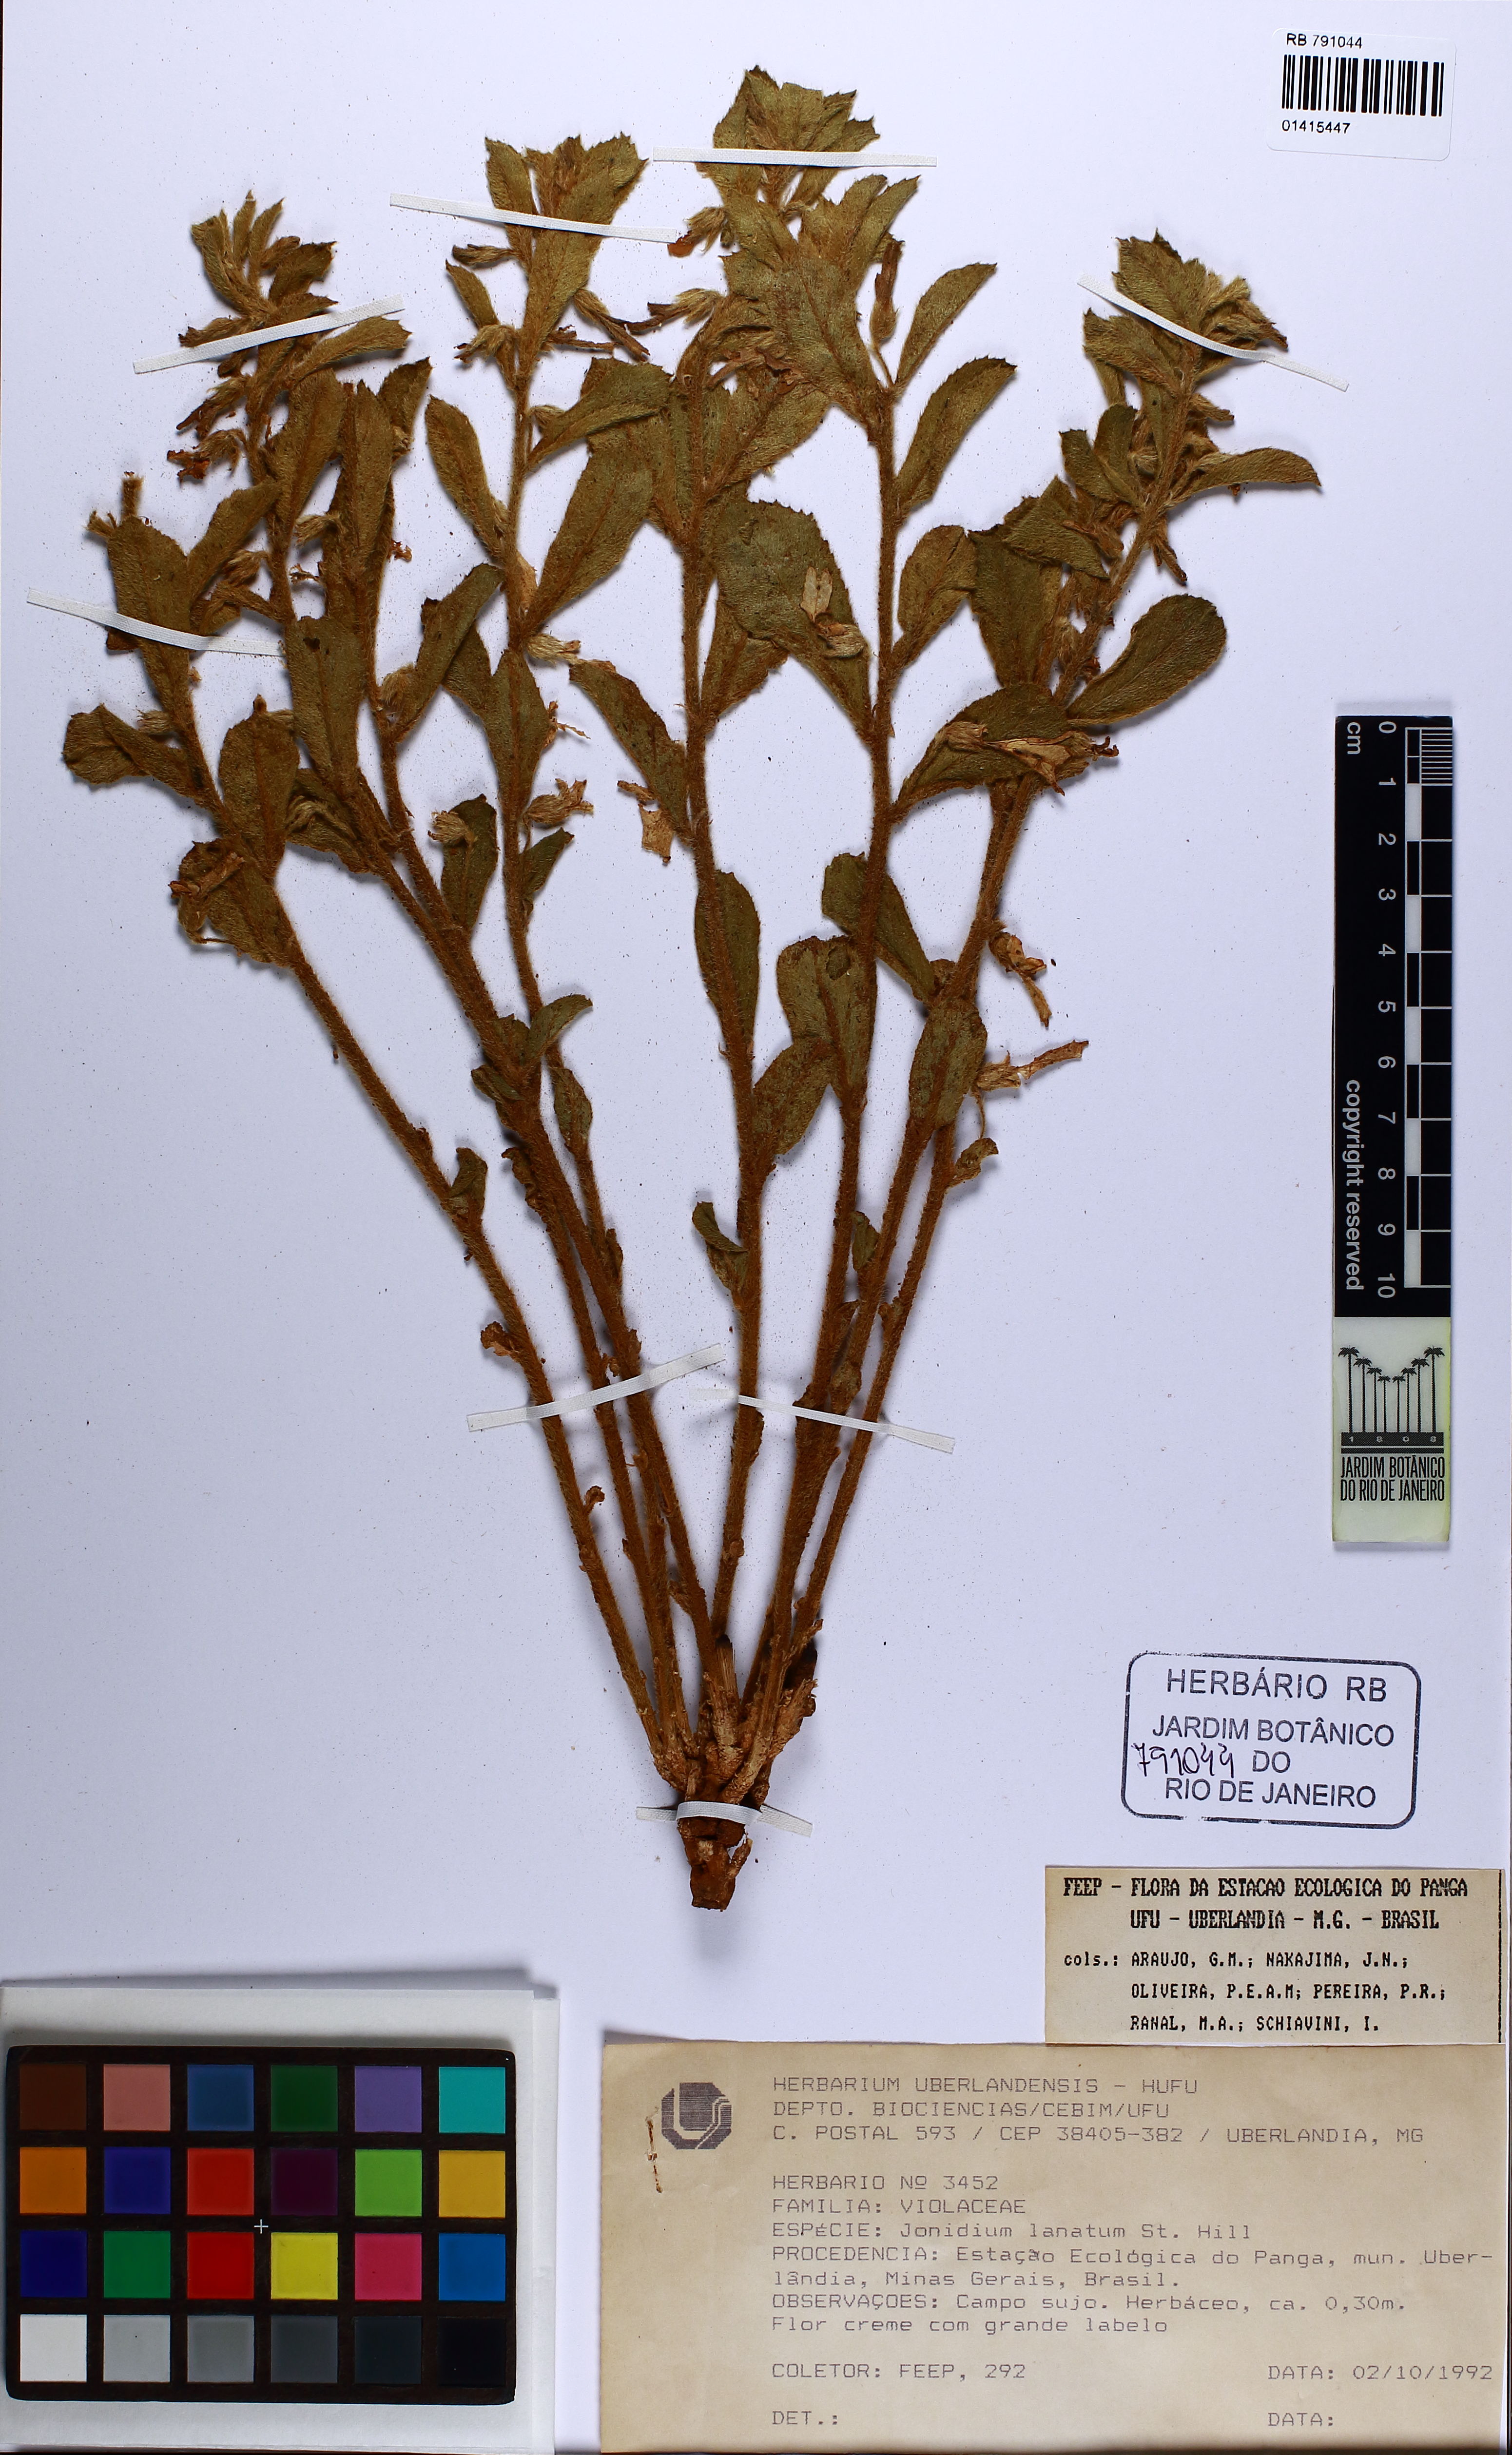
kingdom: Plantae
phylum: Tracheophyta
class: Magnoliopsida
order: Malpighiales
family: Violaceae
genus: Pombalia
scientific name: Pombalia lanata
